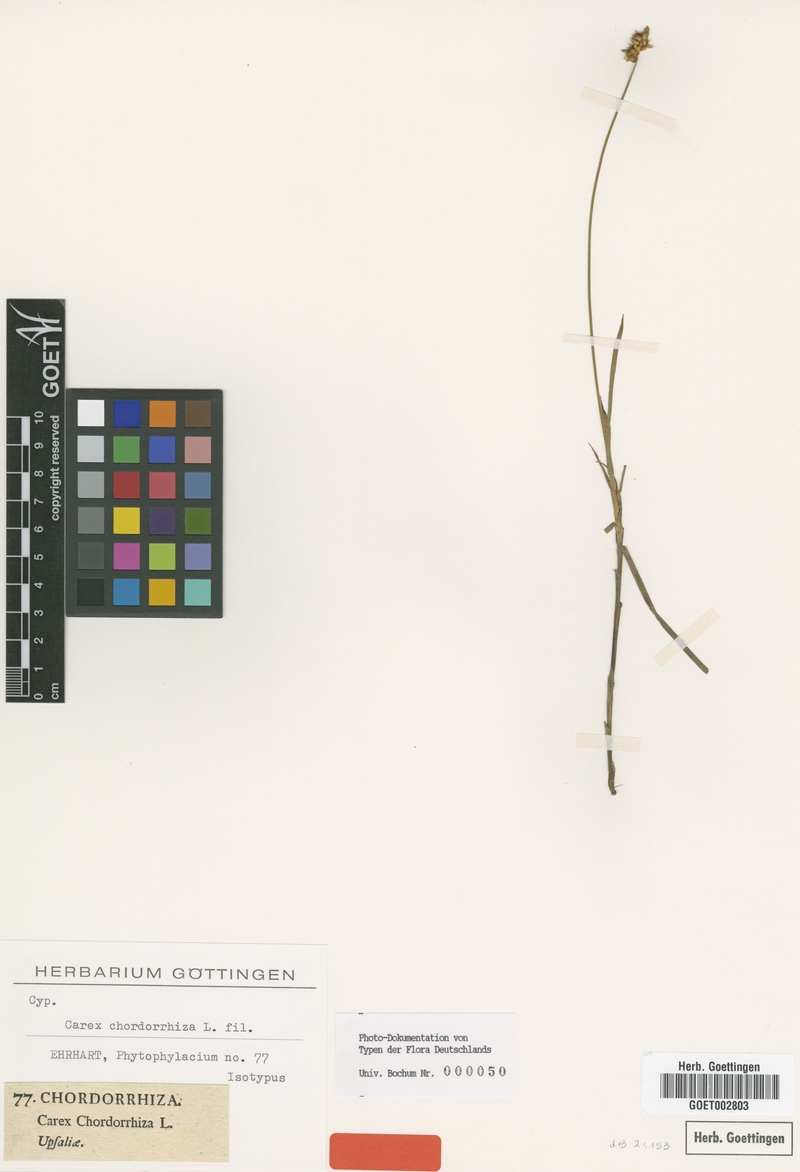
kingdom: Plantae
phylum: Tracheophyta
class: Liliopsida
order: Poales
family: Cyperaceae
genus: Carex
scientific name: Carex chordorrhiza
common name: String sedge
